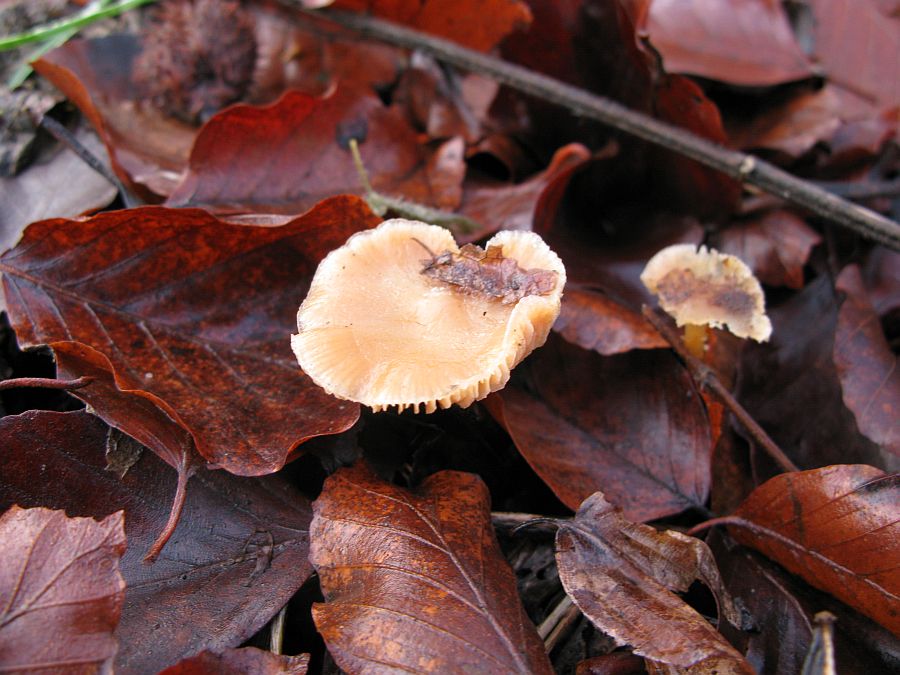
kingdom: Fungi
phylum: Basidiomycota
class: Agaricomycetes
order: Agaricales
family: Hymenogastraceae
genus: Galerina
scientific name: Galerina sideroides
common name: træflis-hjelmhat
